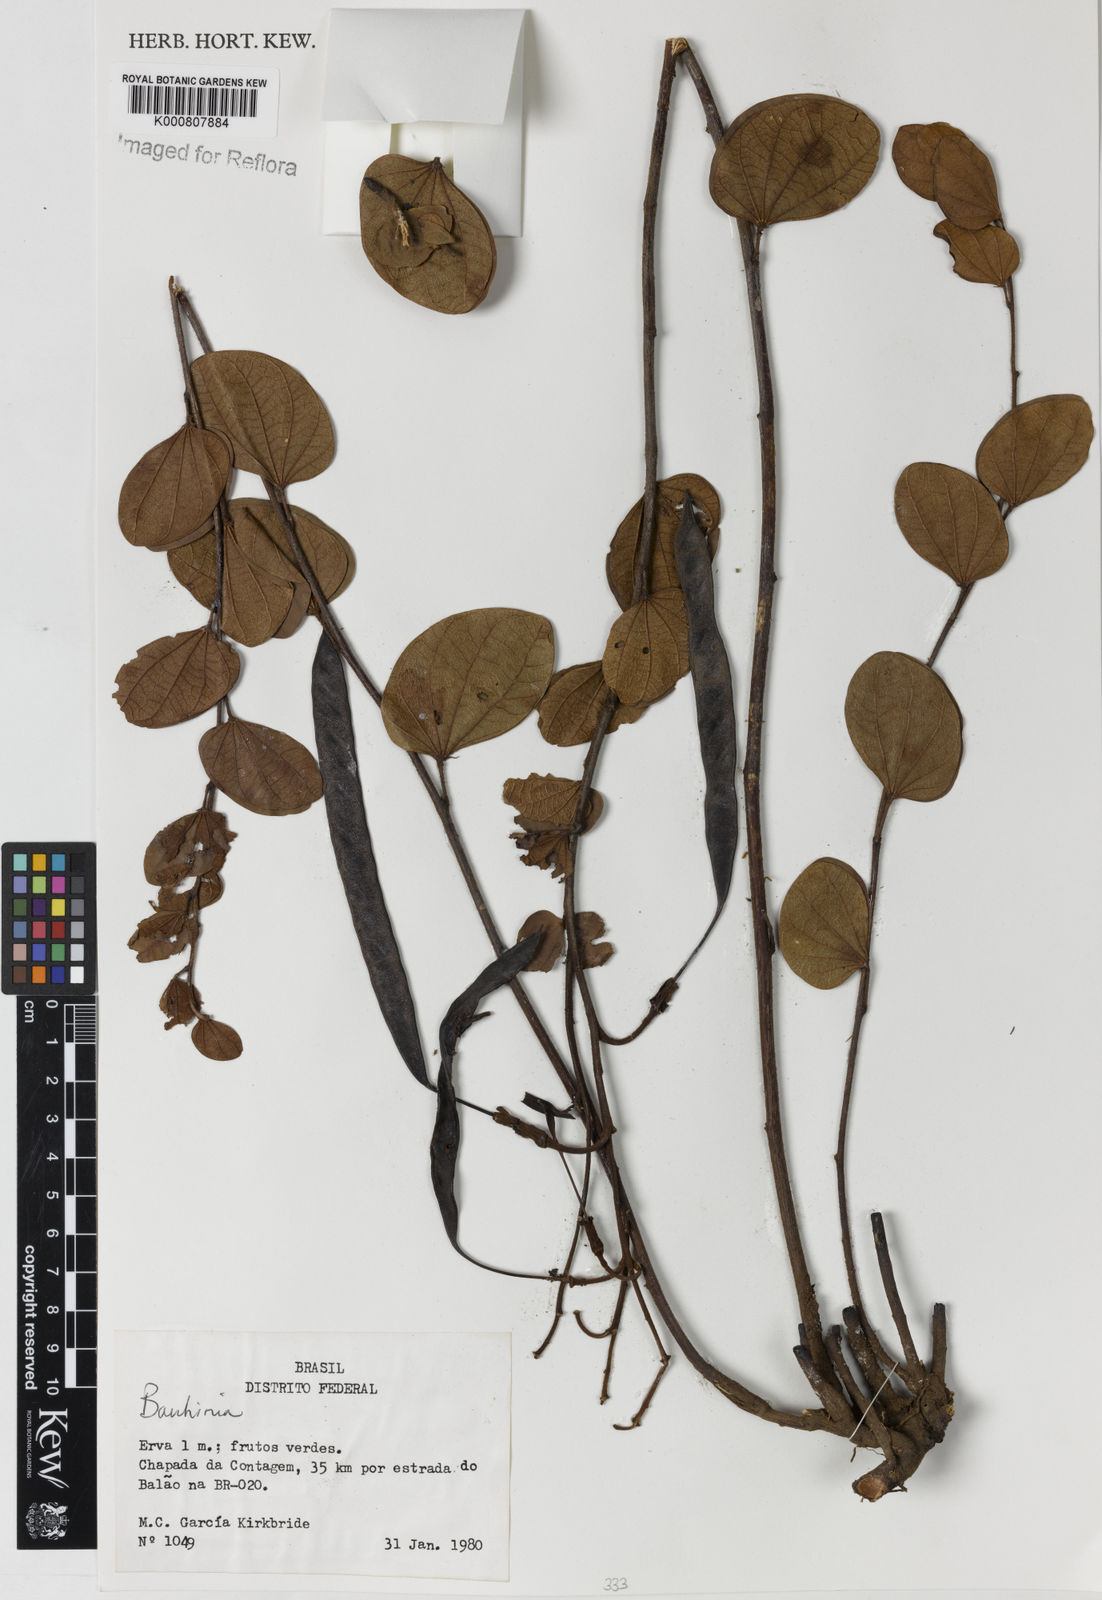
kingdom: Plantae
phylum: Tracheophyta
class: Magnoliopsida
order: Fabales
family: Fabaceae
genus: Bauhinia
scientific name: Bauhinia
